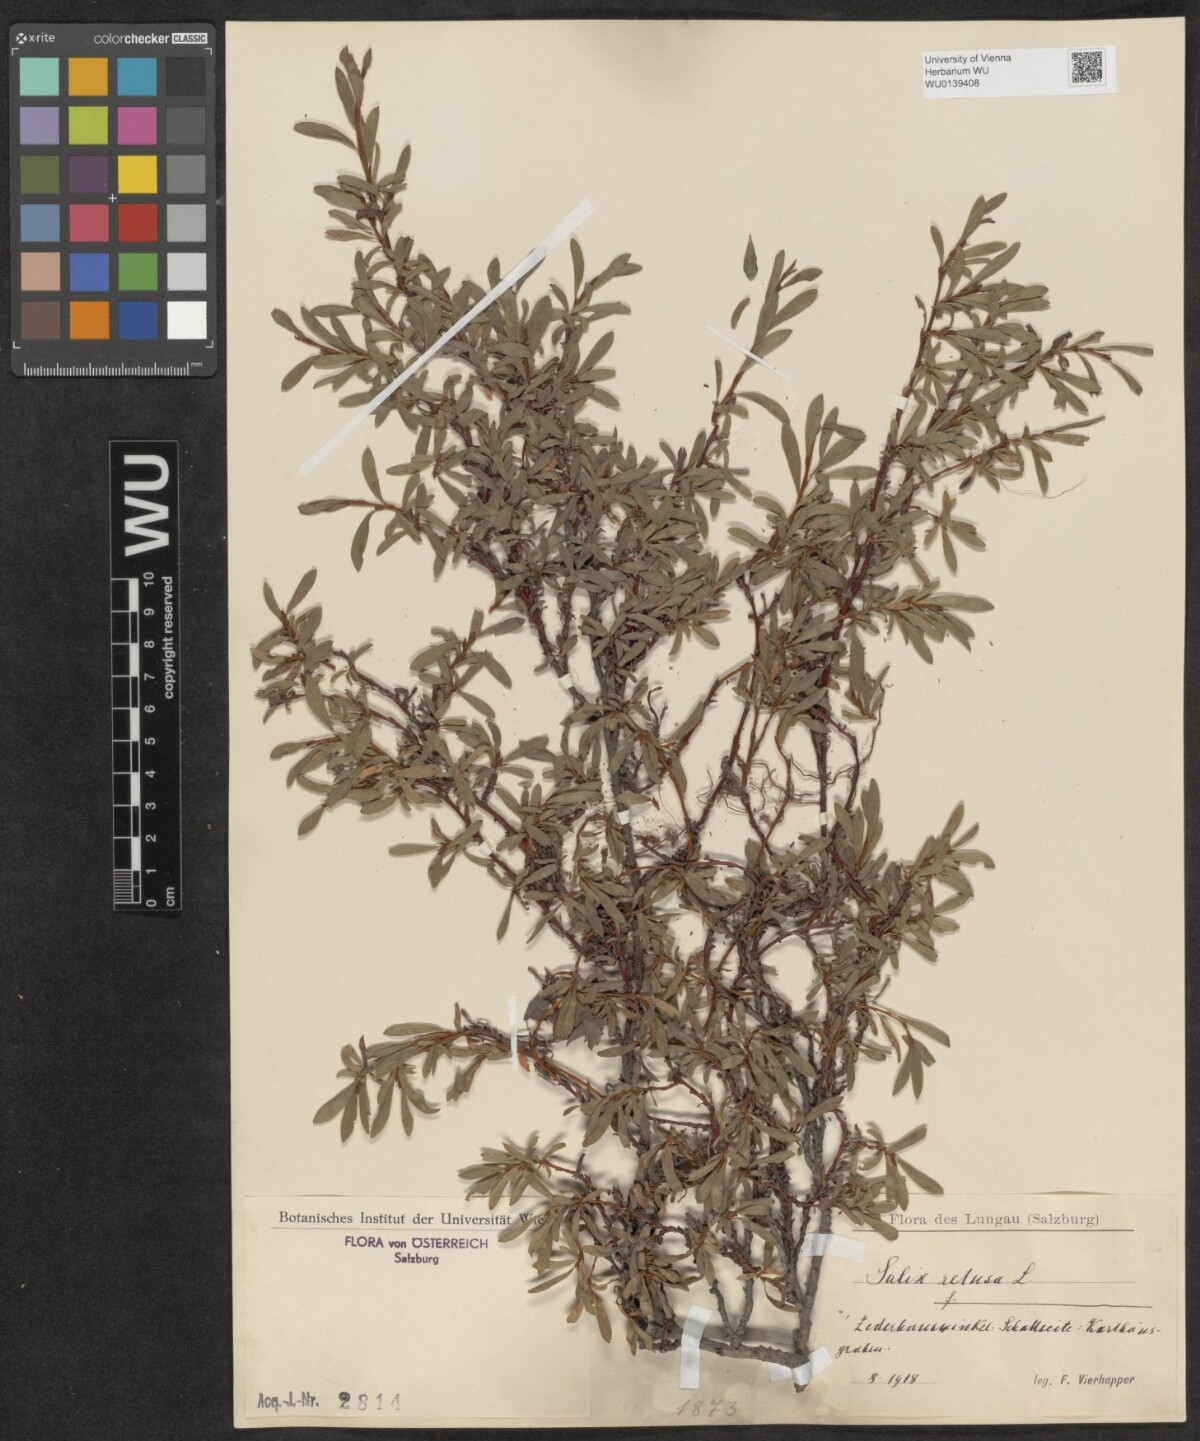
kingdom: Plantae
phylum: Tracheophyta
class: Magnoliopsida
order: Malpighiales
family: Salicaceae
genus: Salix
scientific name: Salix retusa
